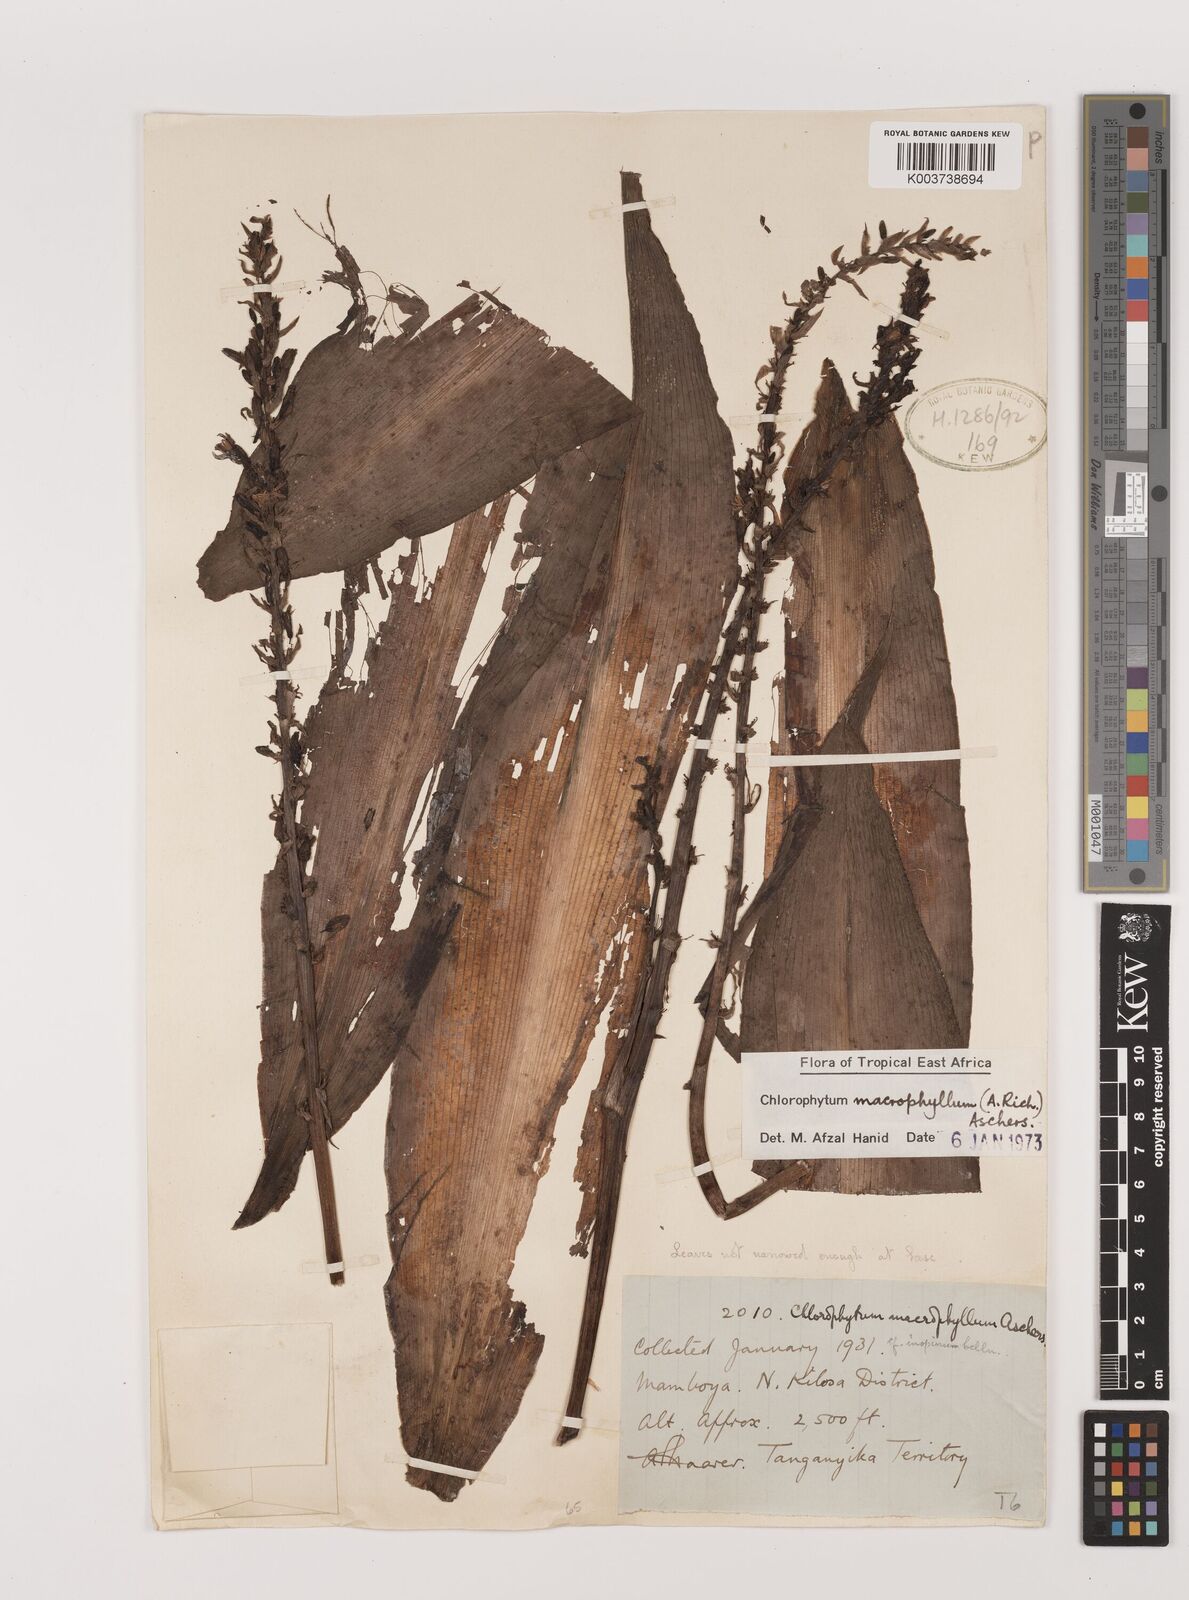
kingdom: Plantae
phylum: Tracheophyta
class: Liliopsida
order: Asparagales
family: Asparagaceae
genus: Chlorophytum
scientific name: Chlorophytum macrophyllum
